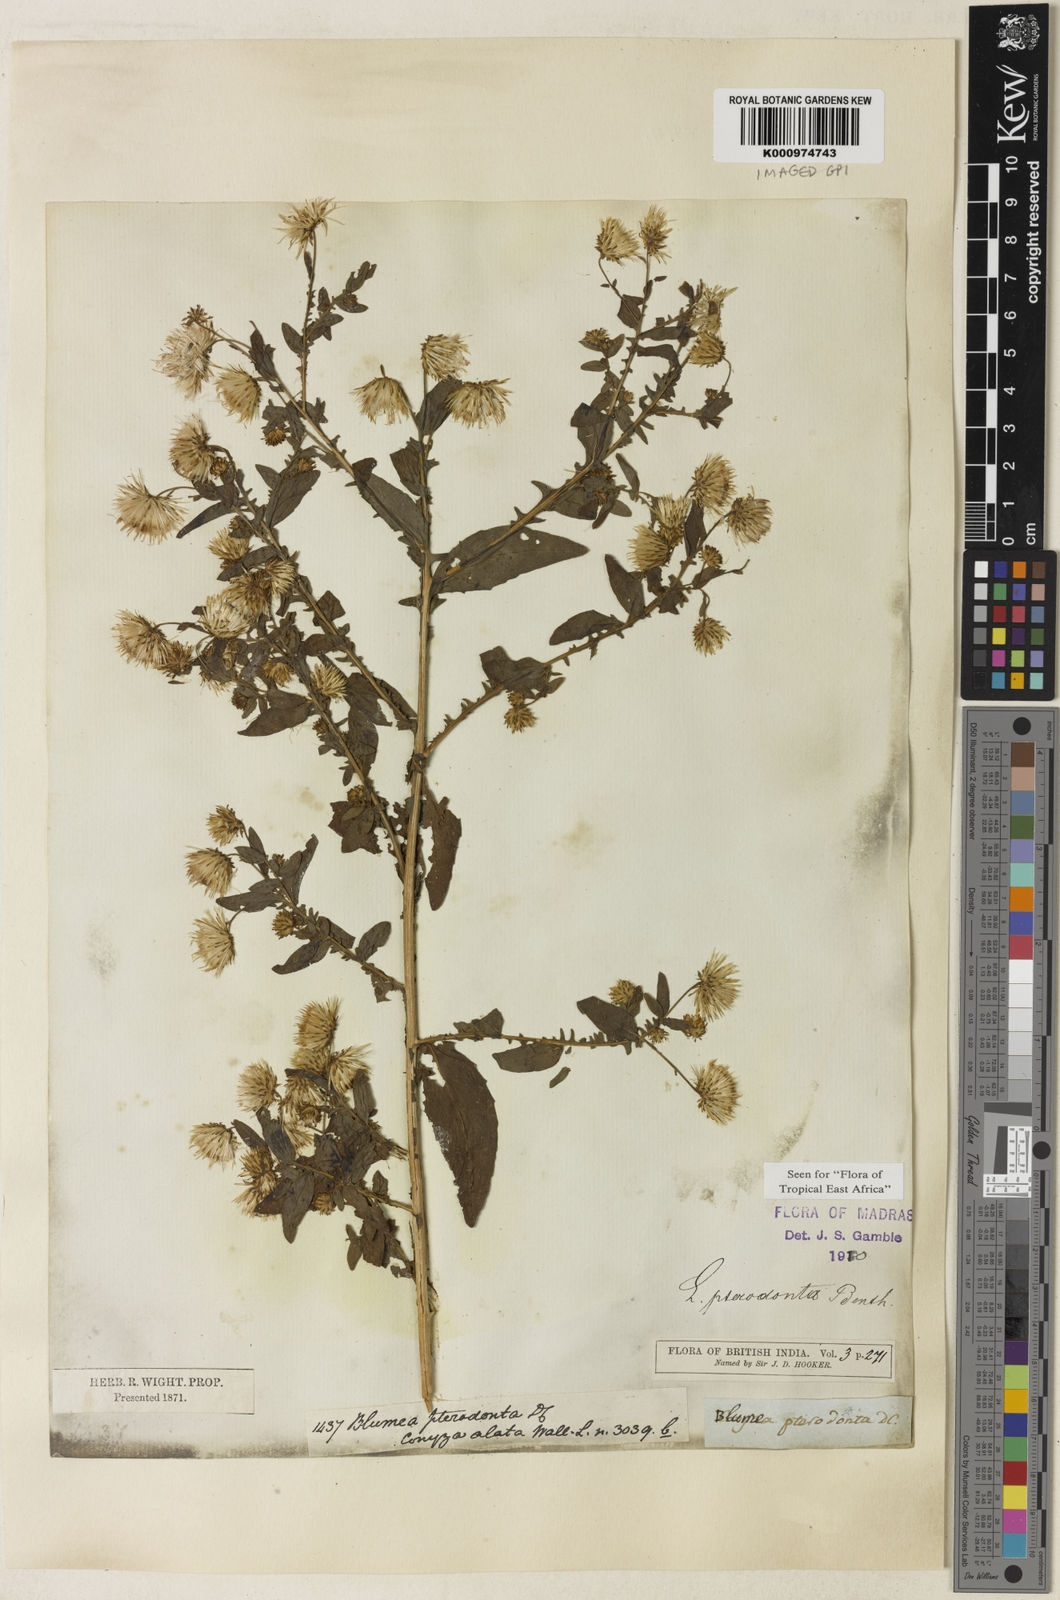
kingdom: Plantae
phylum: Tracheophyta
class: Magnoliopsida
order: Asterales
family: Asteraceae
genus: Laggera
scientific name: Laggera crispata
